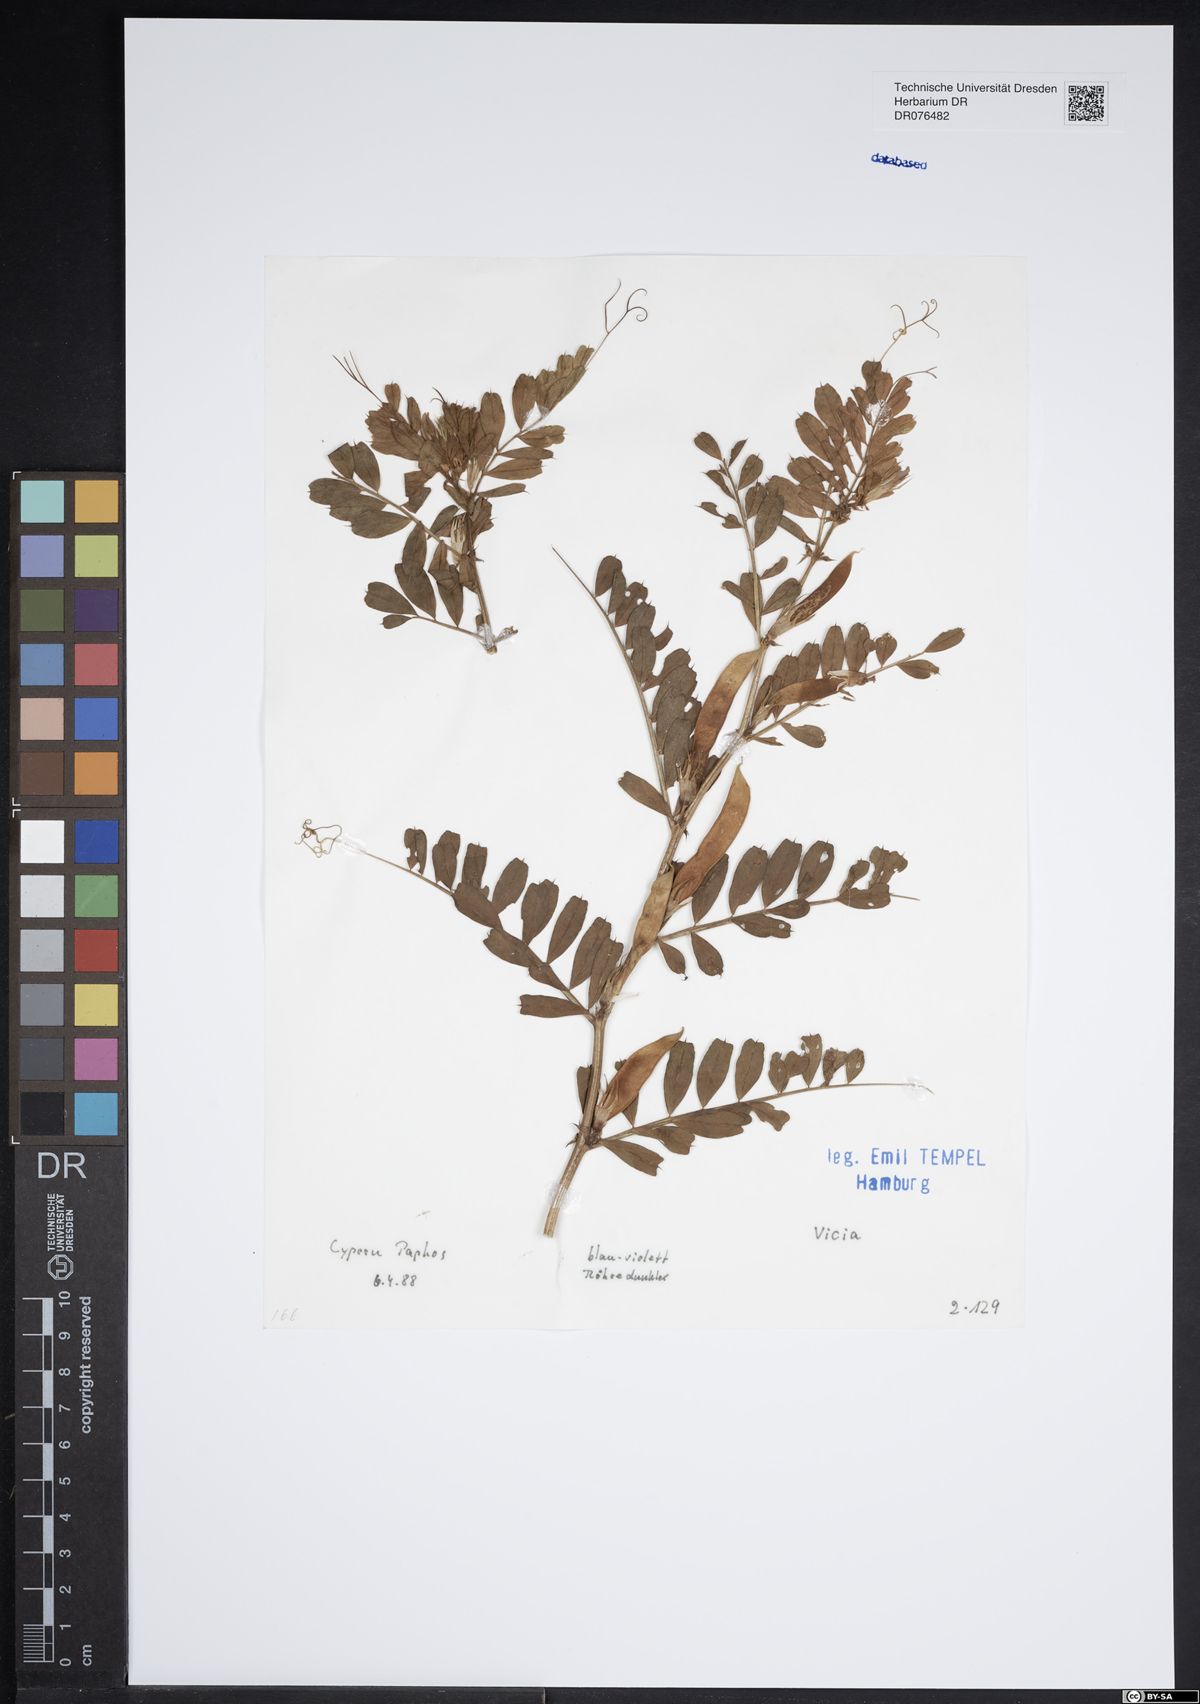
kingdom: Plantae
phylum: Tracheophyta
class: Magnoliopsida
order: Fabales
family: Fabaceae
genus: Vicia
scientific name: Vicia
